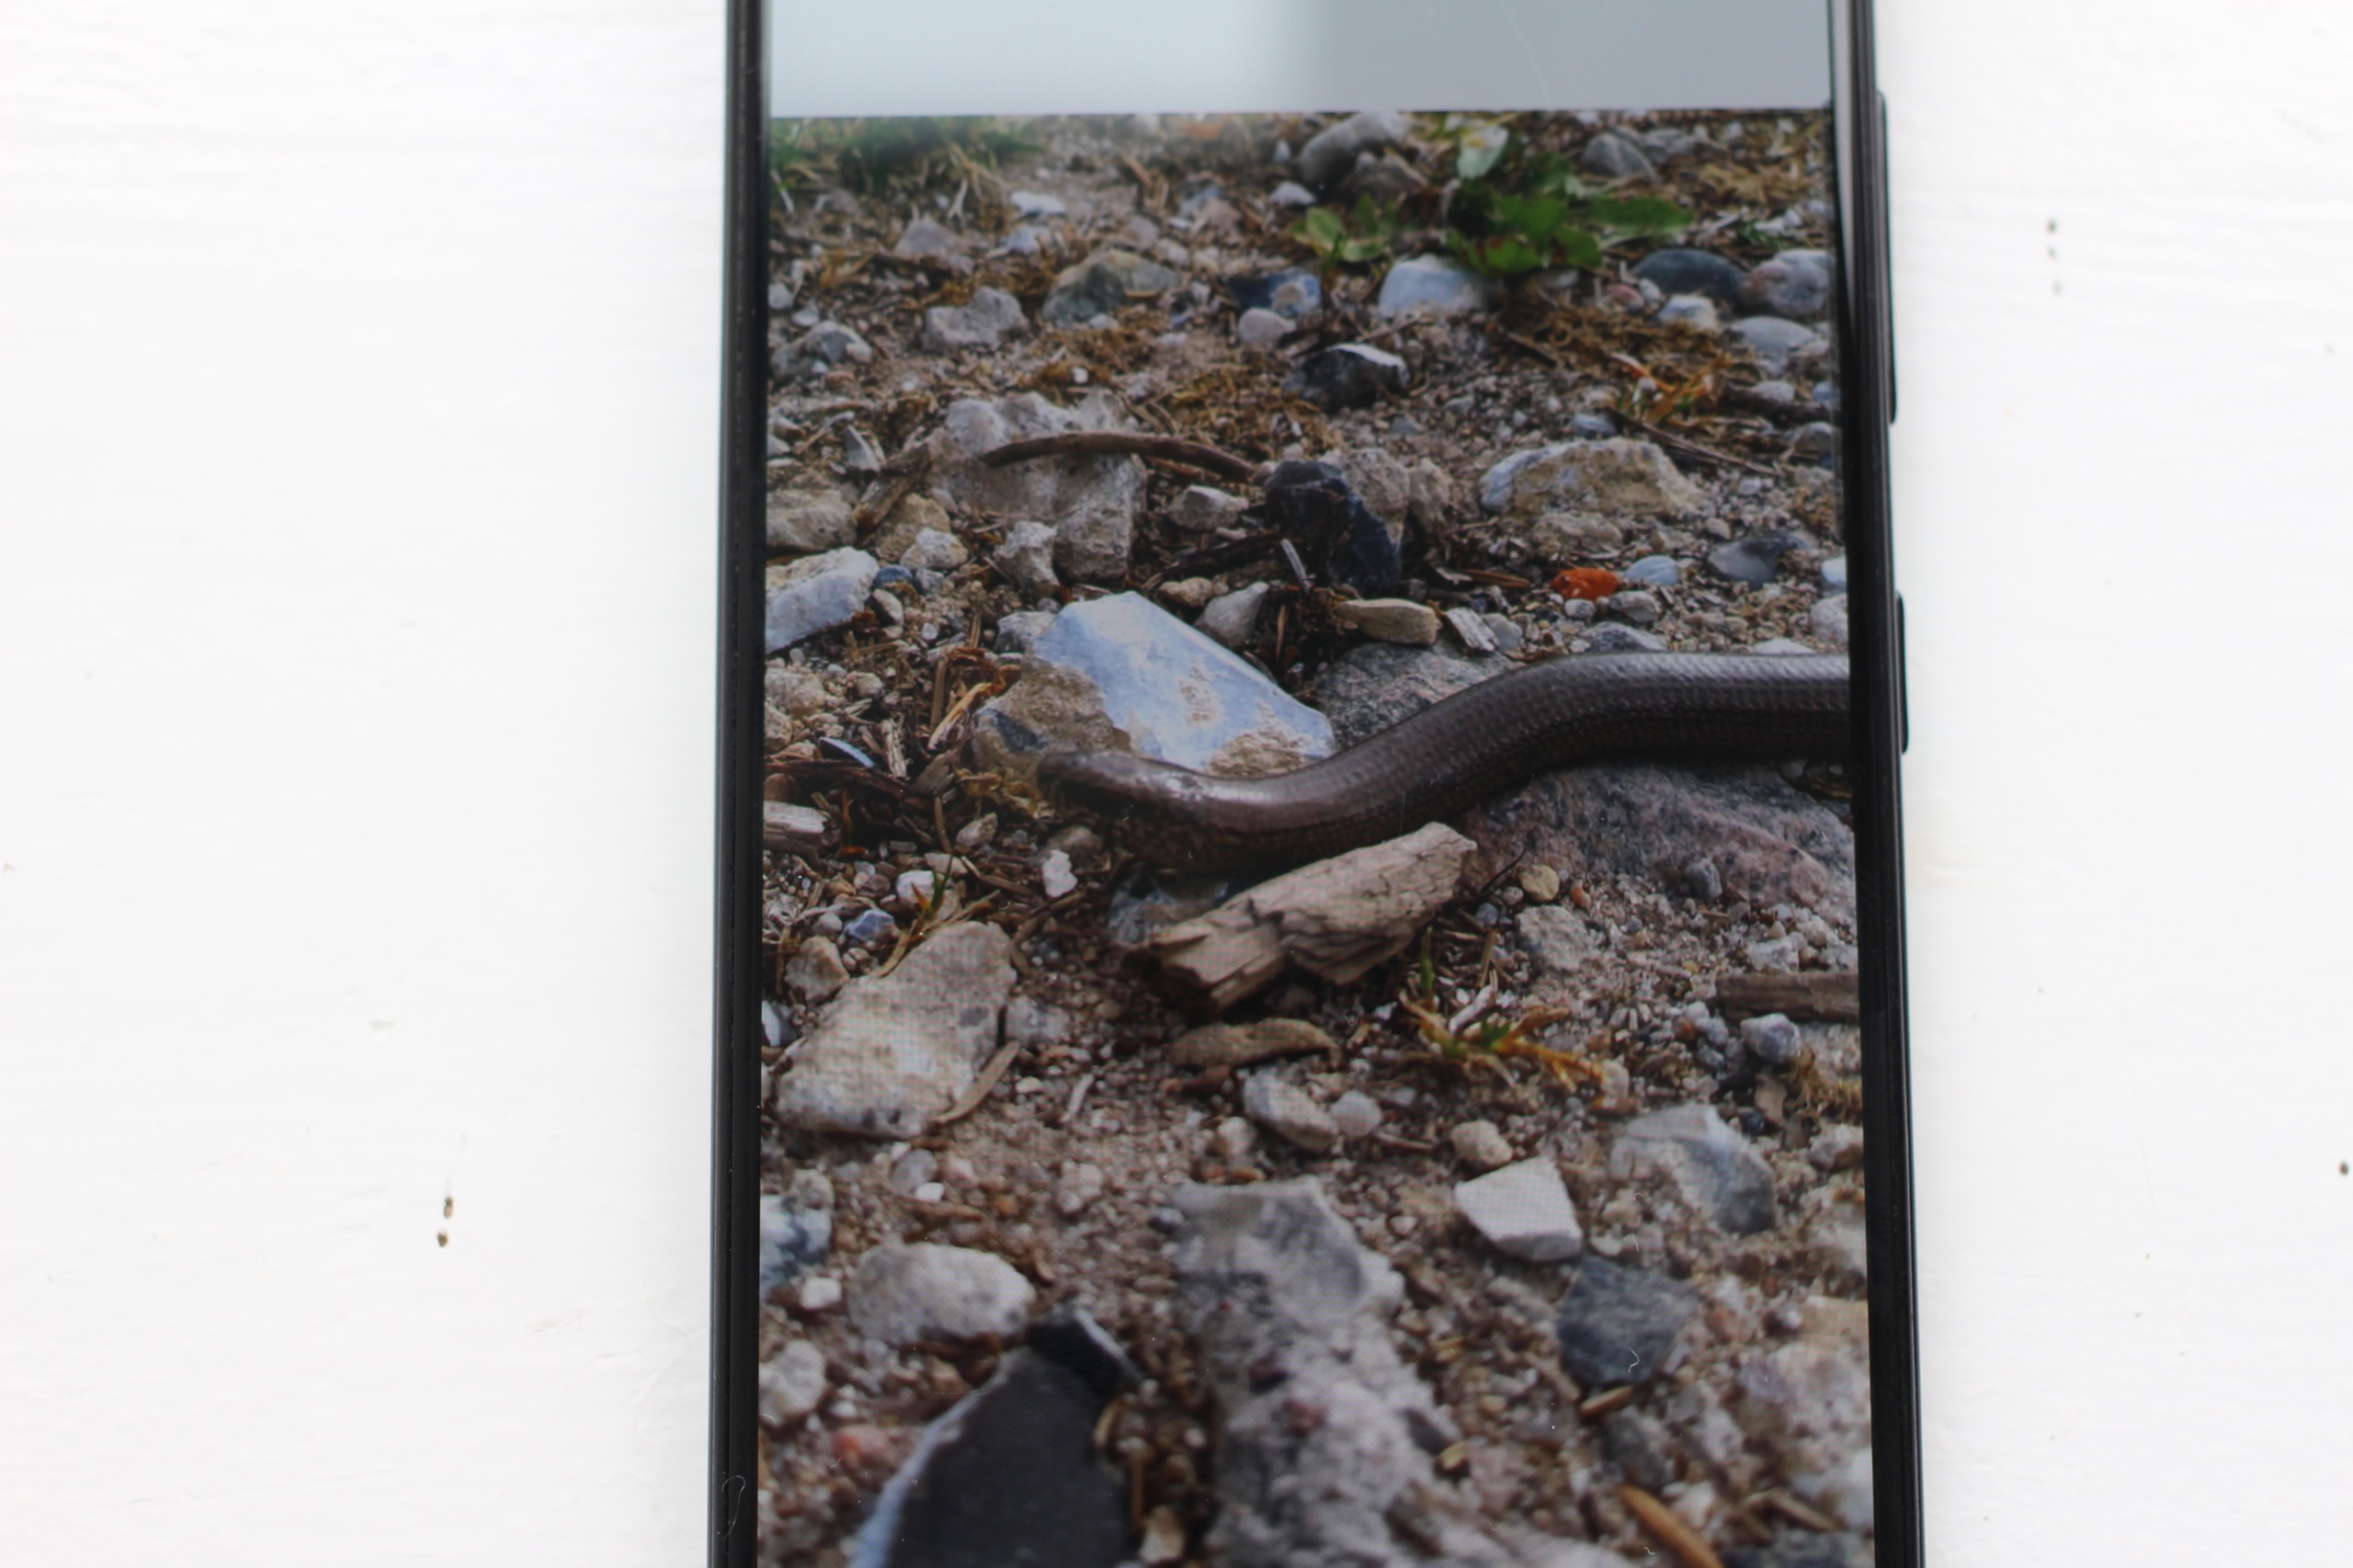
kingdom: Animalia
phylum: Chordata
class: Squamata
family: Anguidae
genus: Anguis
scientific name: Anguis fragilis
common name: Stålorm
